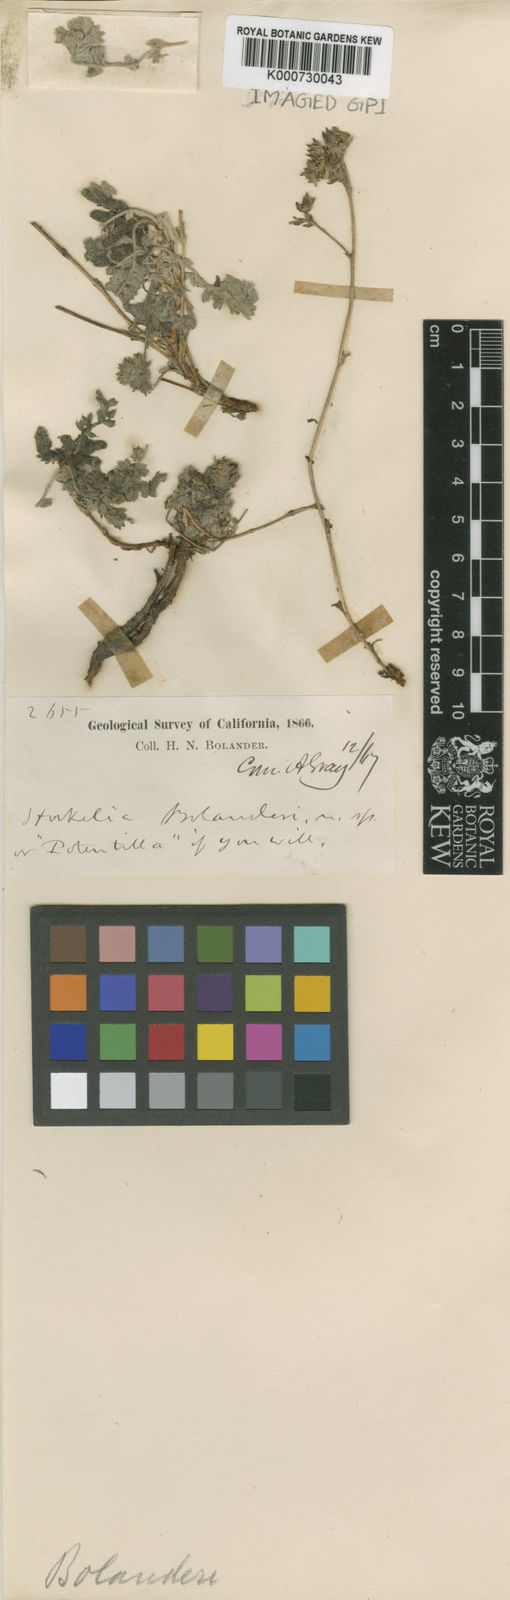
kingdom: Plantae
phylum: Tracheophyta
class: Magnoliopsida
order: Rosales
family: Rosaceae
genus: Potentilla
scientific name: Potentilla bolanderi
